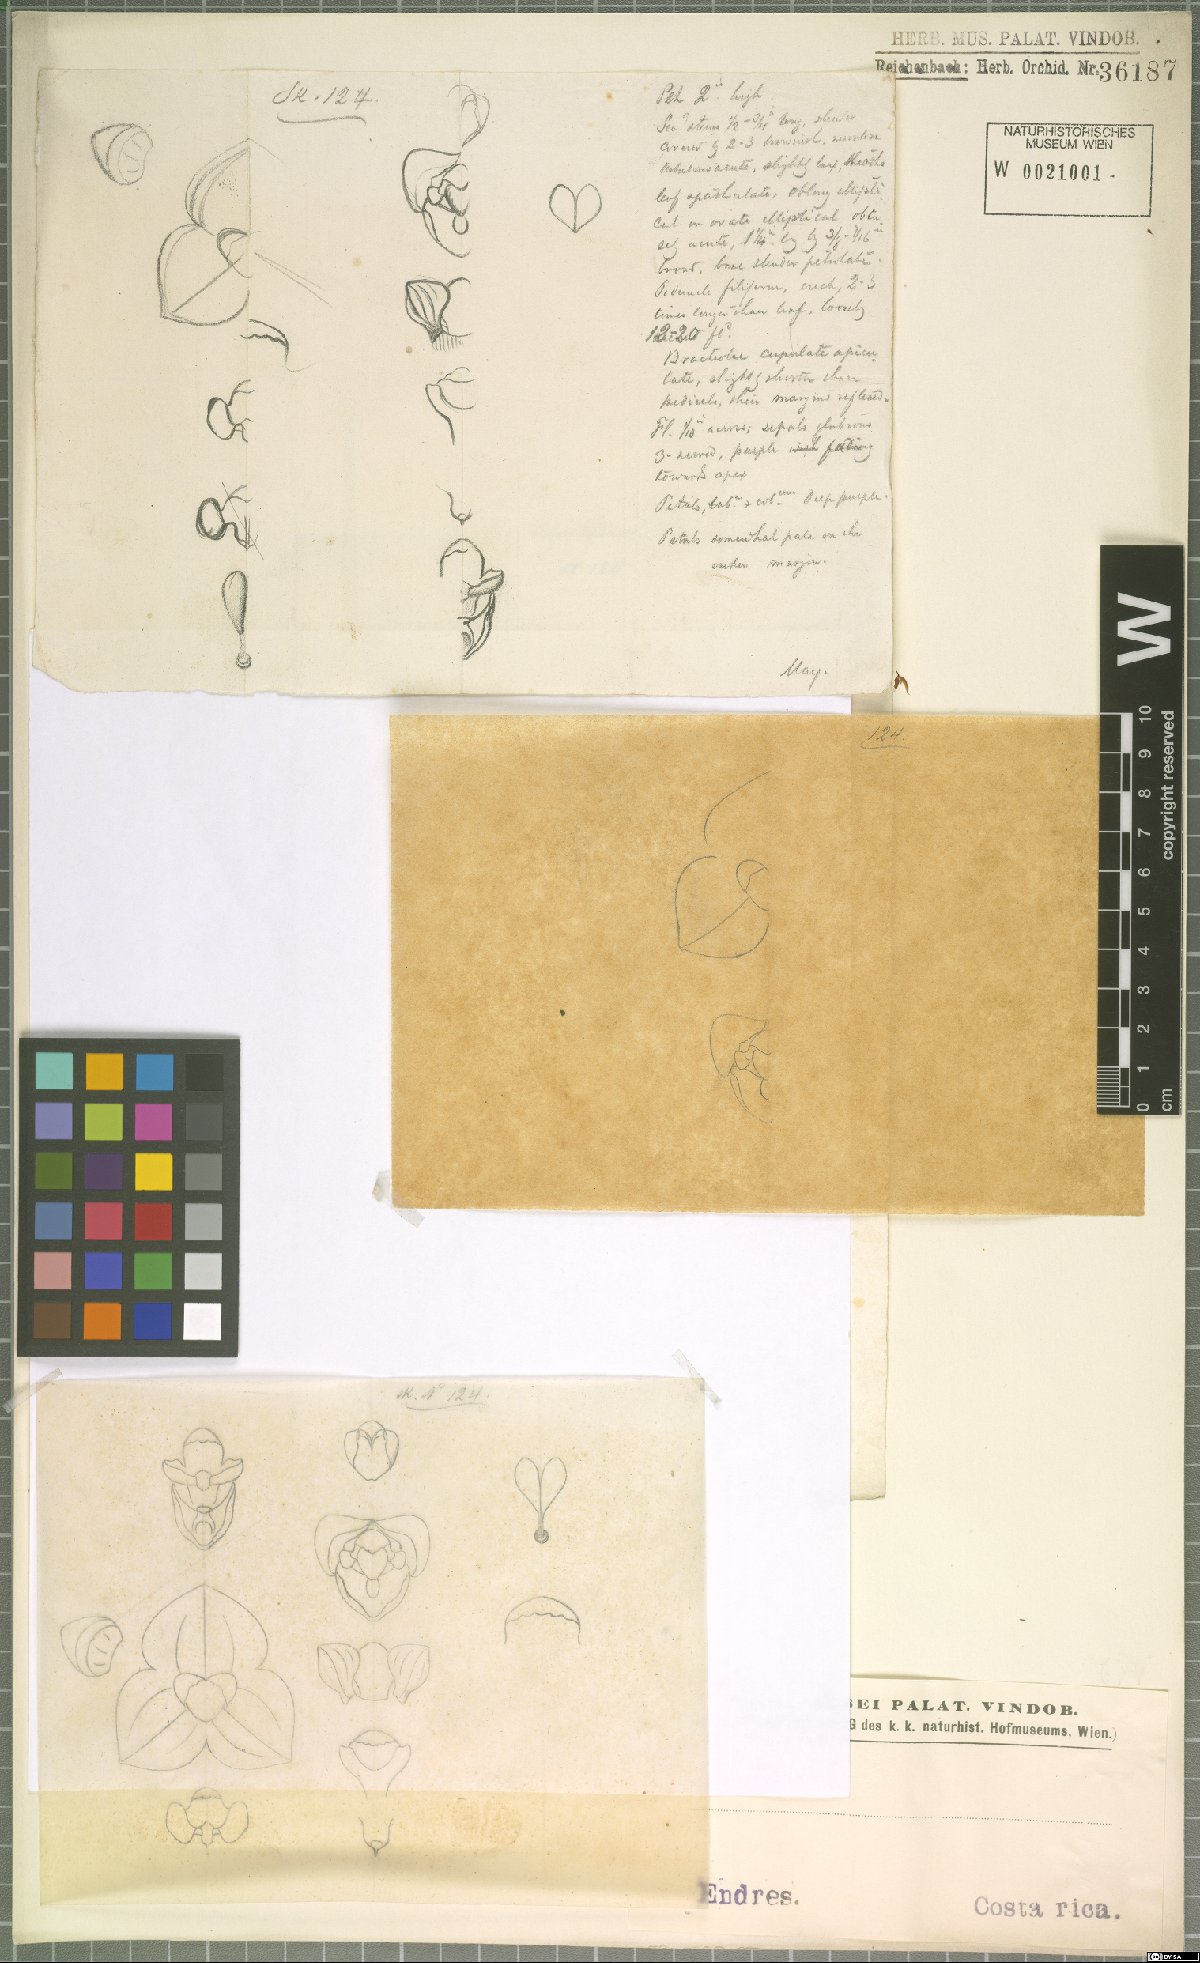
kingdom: Plantae
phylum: Tracheophyta
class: Liliopsida
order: Asparagales
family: Orchidaceae
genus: Stelis
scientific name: Stelis
